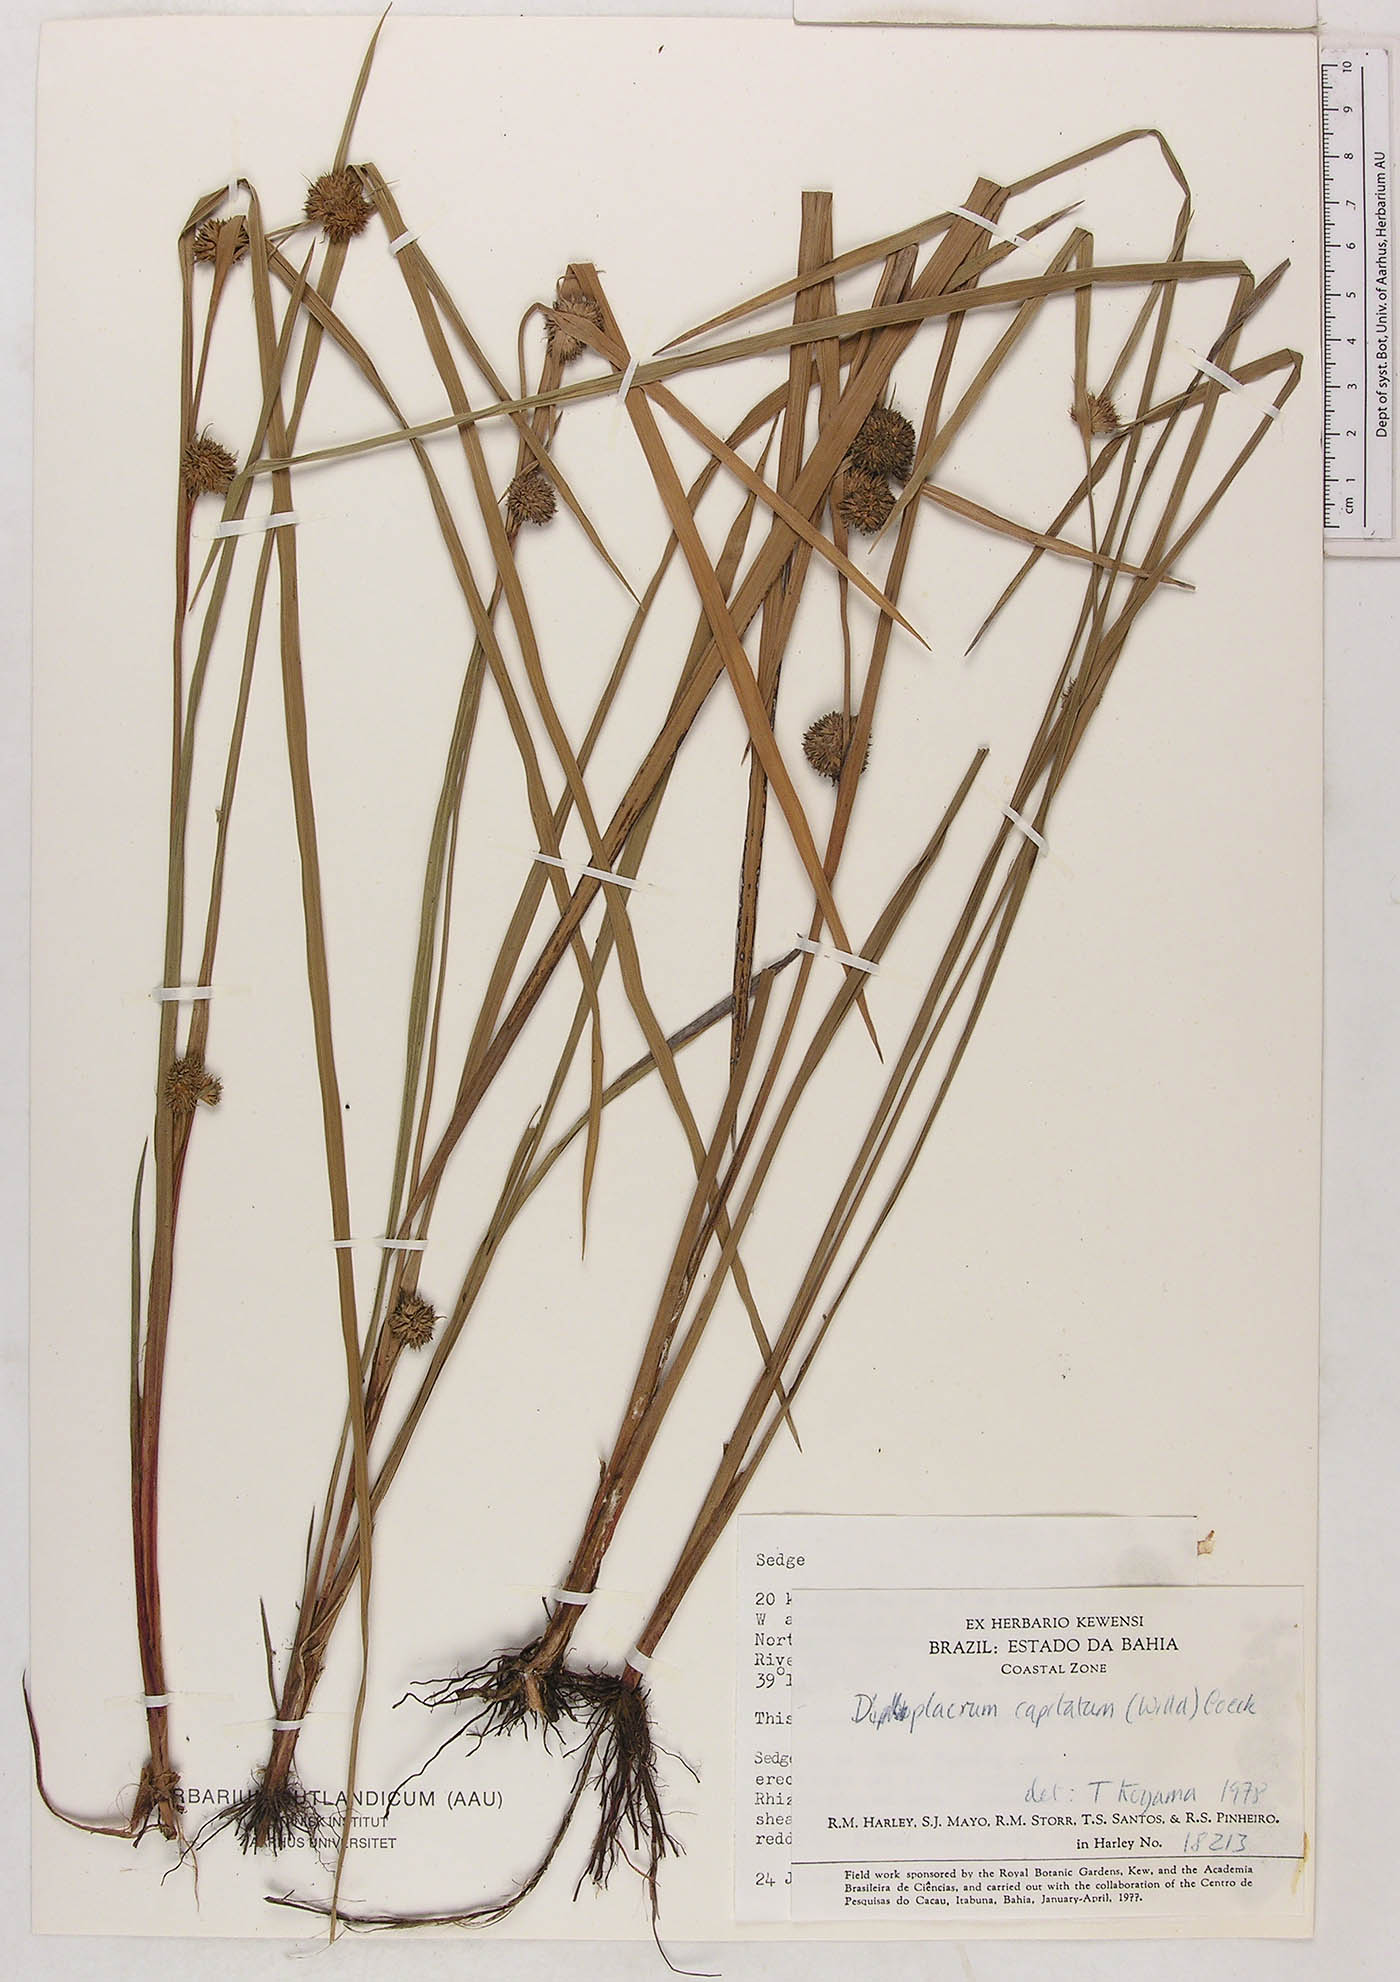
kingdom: Plantae
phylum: Tracheophyta
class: Liliopsida
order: Poales
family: Cyperaceae
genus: Diplacrum
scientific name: Diplacrum capitatum
